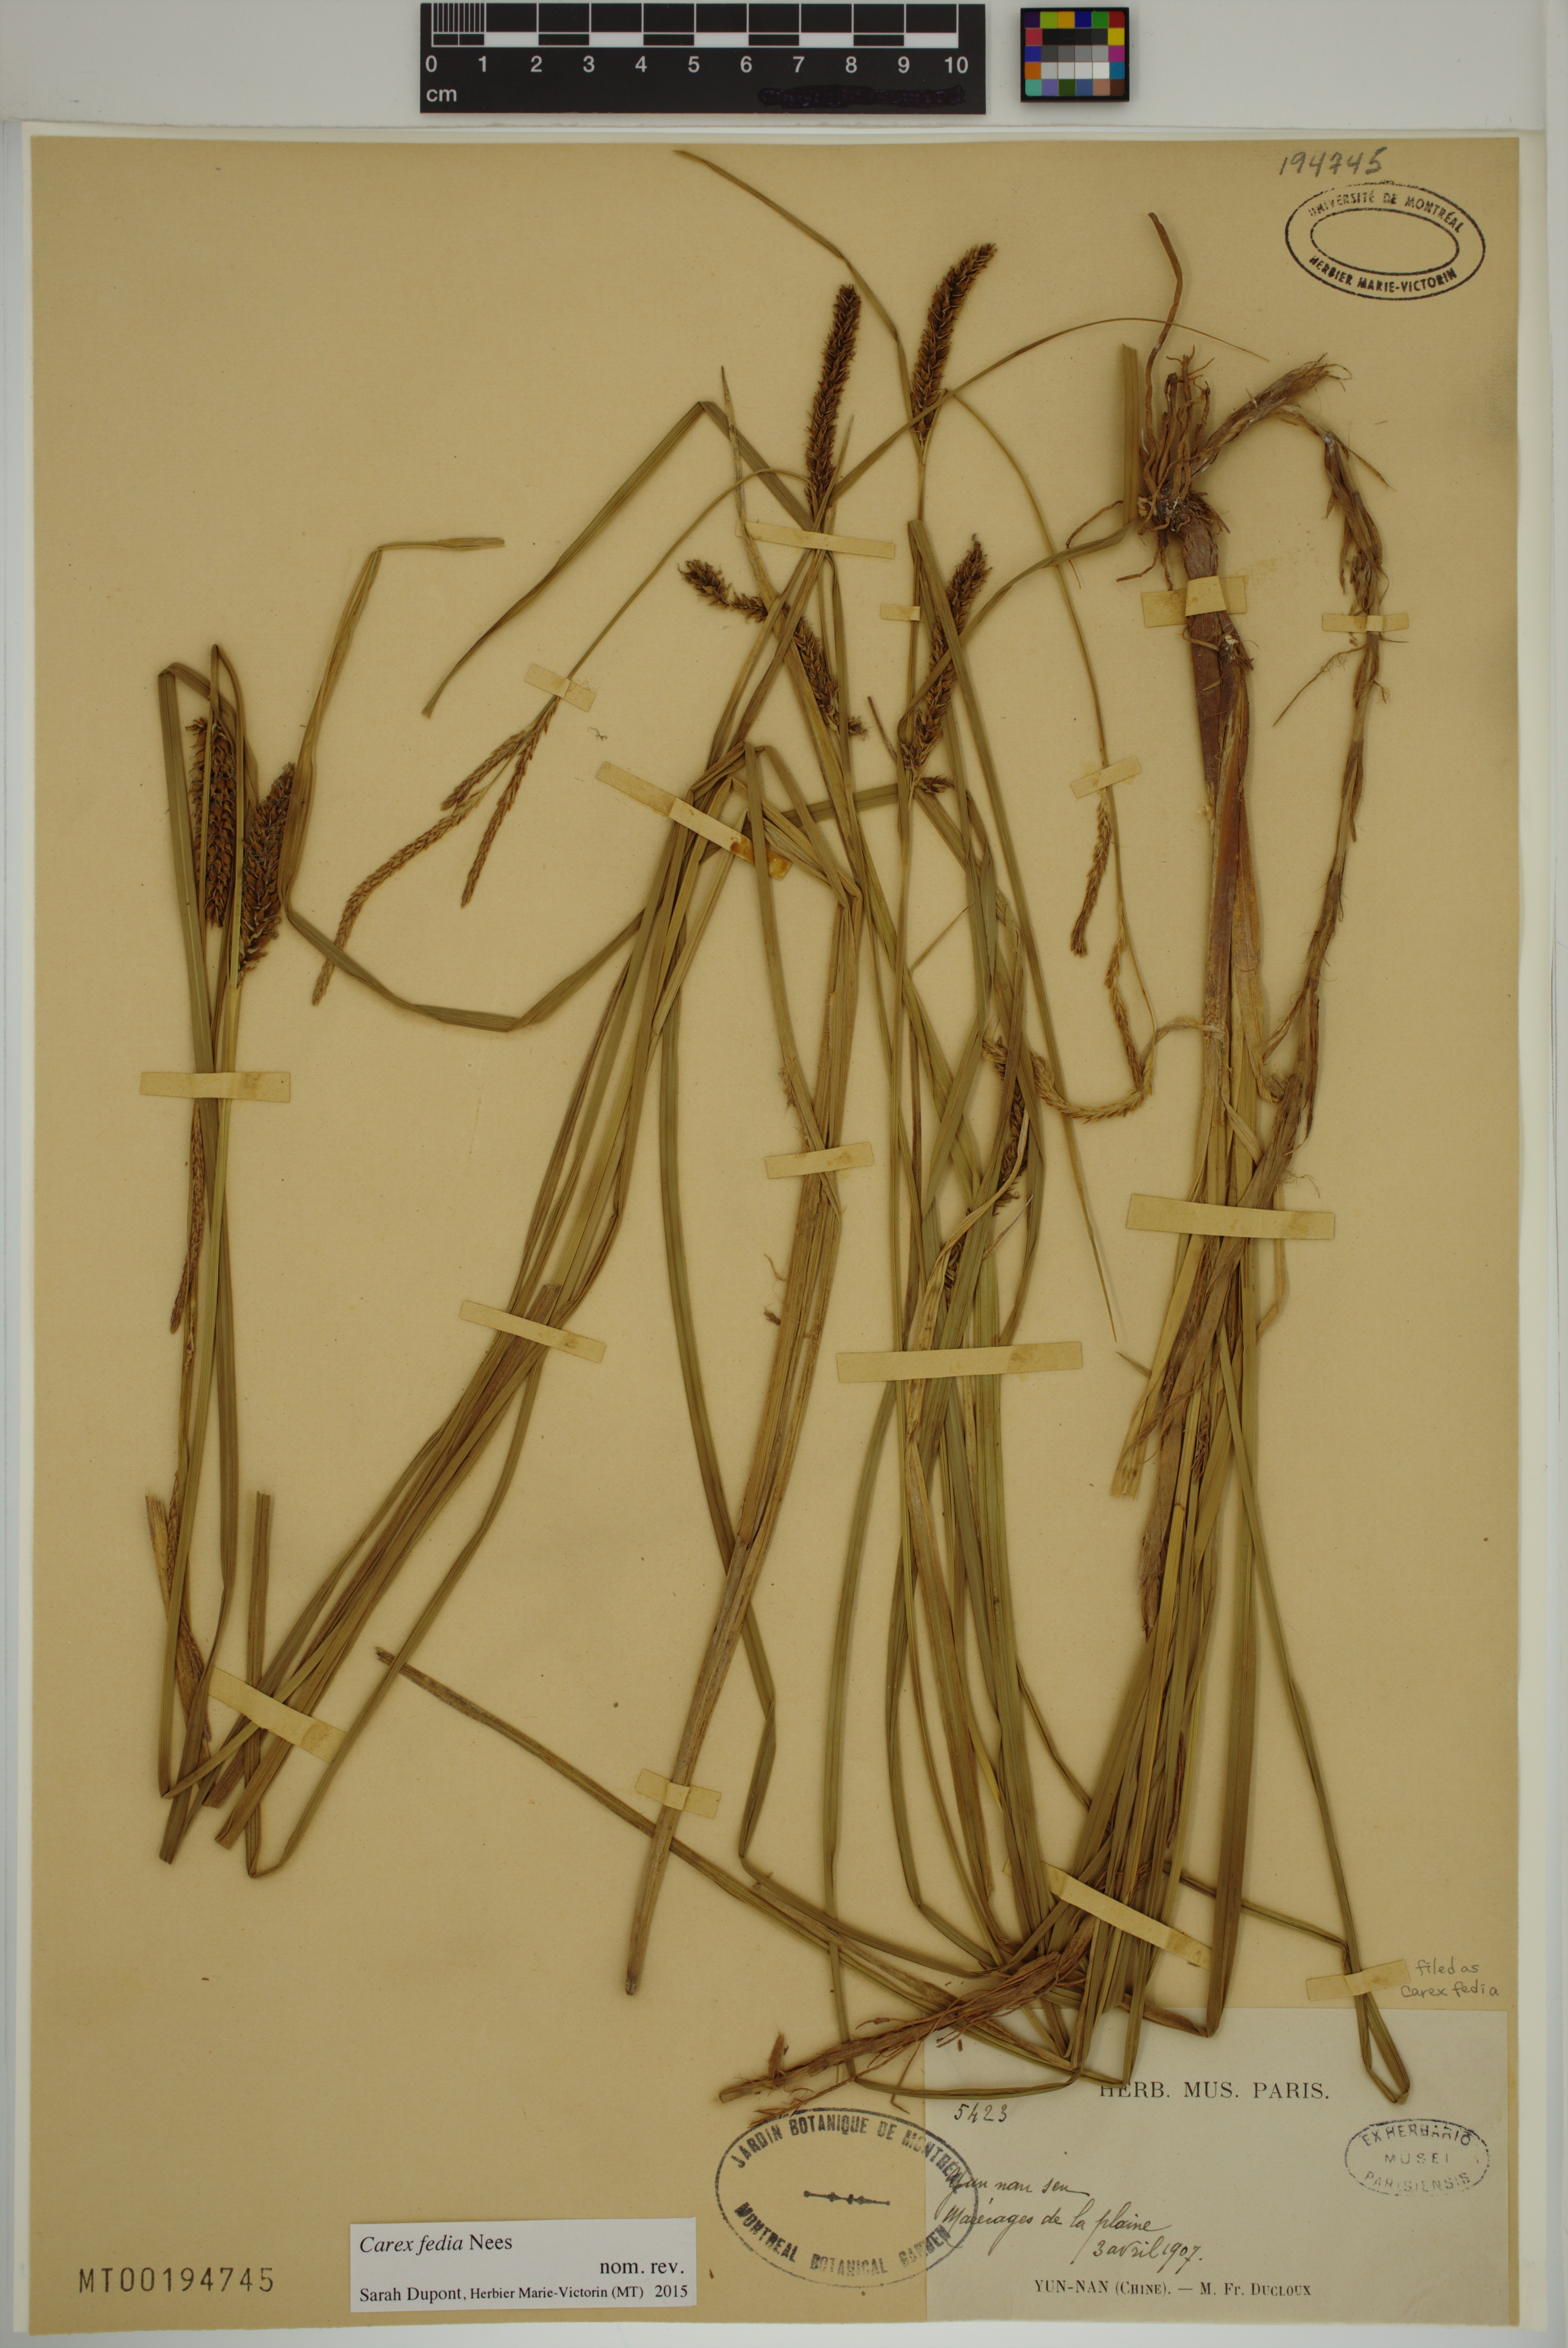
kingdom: Plantae
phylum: Tracheophyta
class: Liliopsida
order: Poales
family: Cyperaceae
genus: Carex
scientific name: Carex fedia
